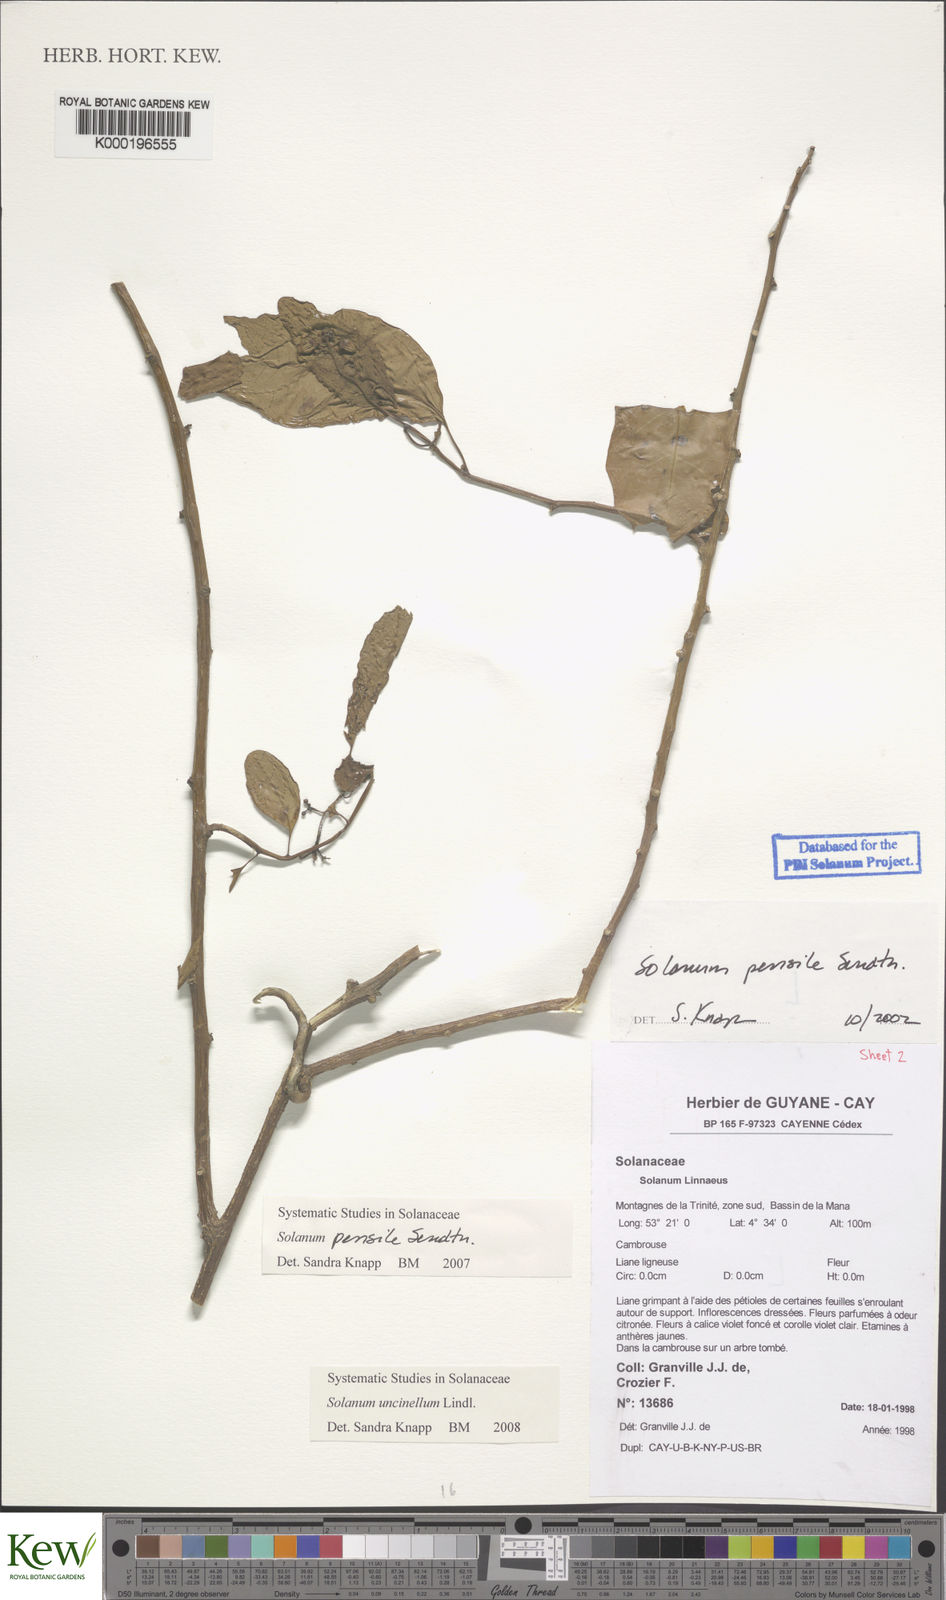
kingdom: Plantae
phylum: Tracheophyta
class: Magnoliopsida
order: Solanales
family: Solanaceae
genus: Solanum
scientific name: Solanum uncinellum
